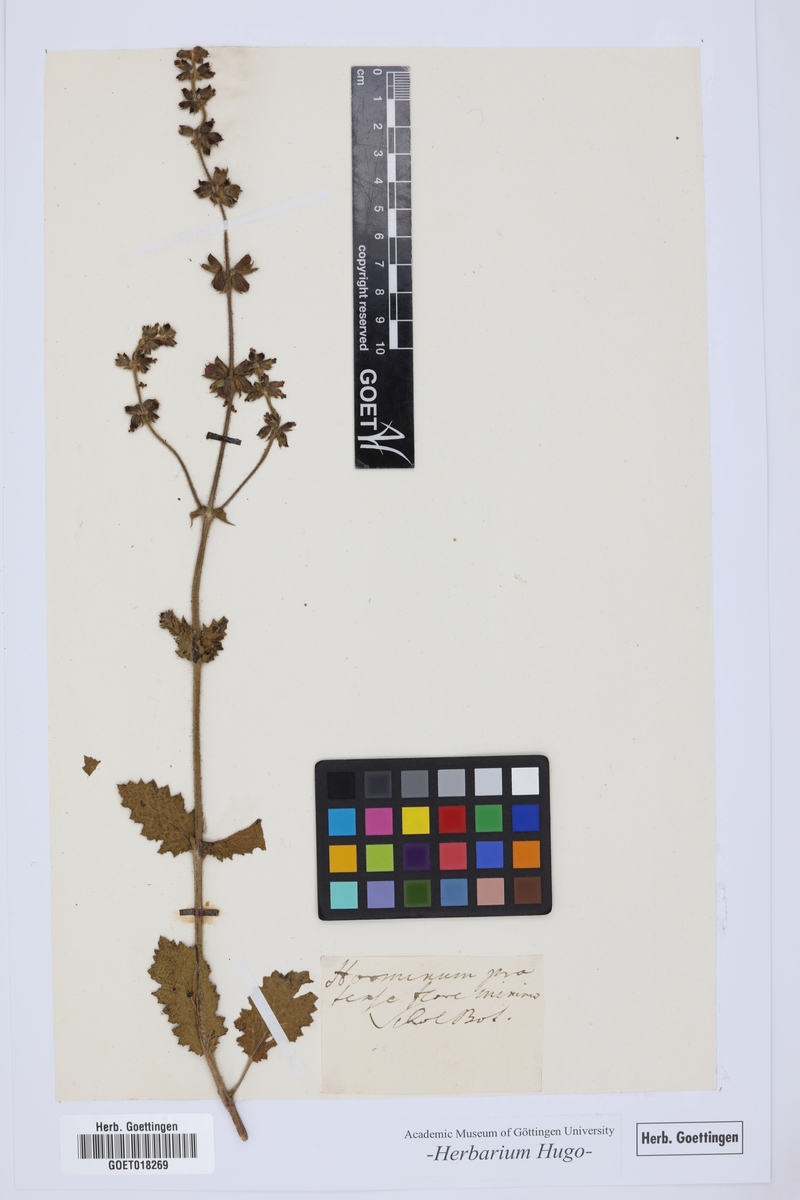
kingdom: Plantae
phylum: Tracheophyta
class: Magnoliopsida
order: Lamiales
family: Lamiaceae
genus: Horminum
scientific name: Horminum
